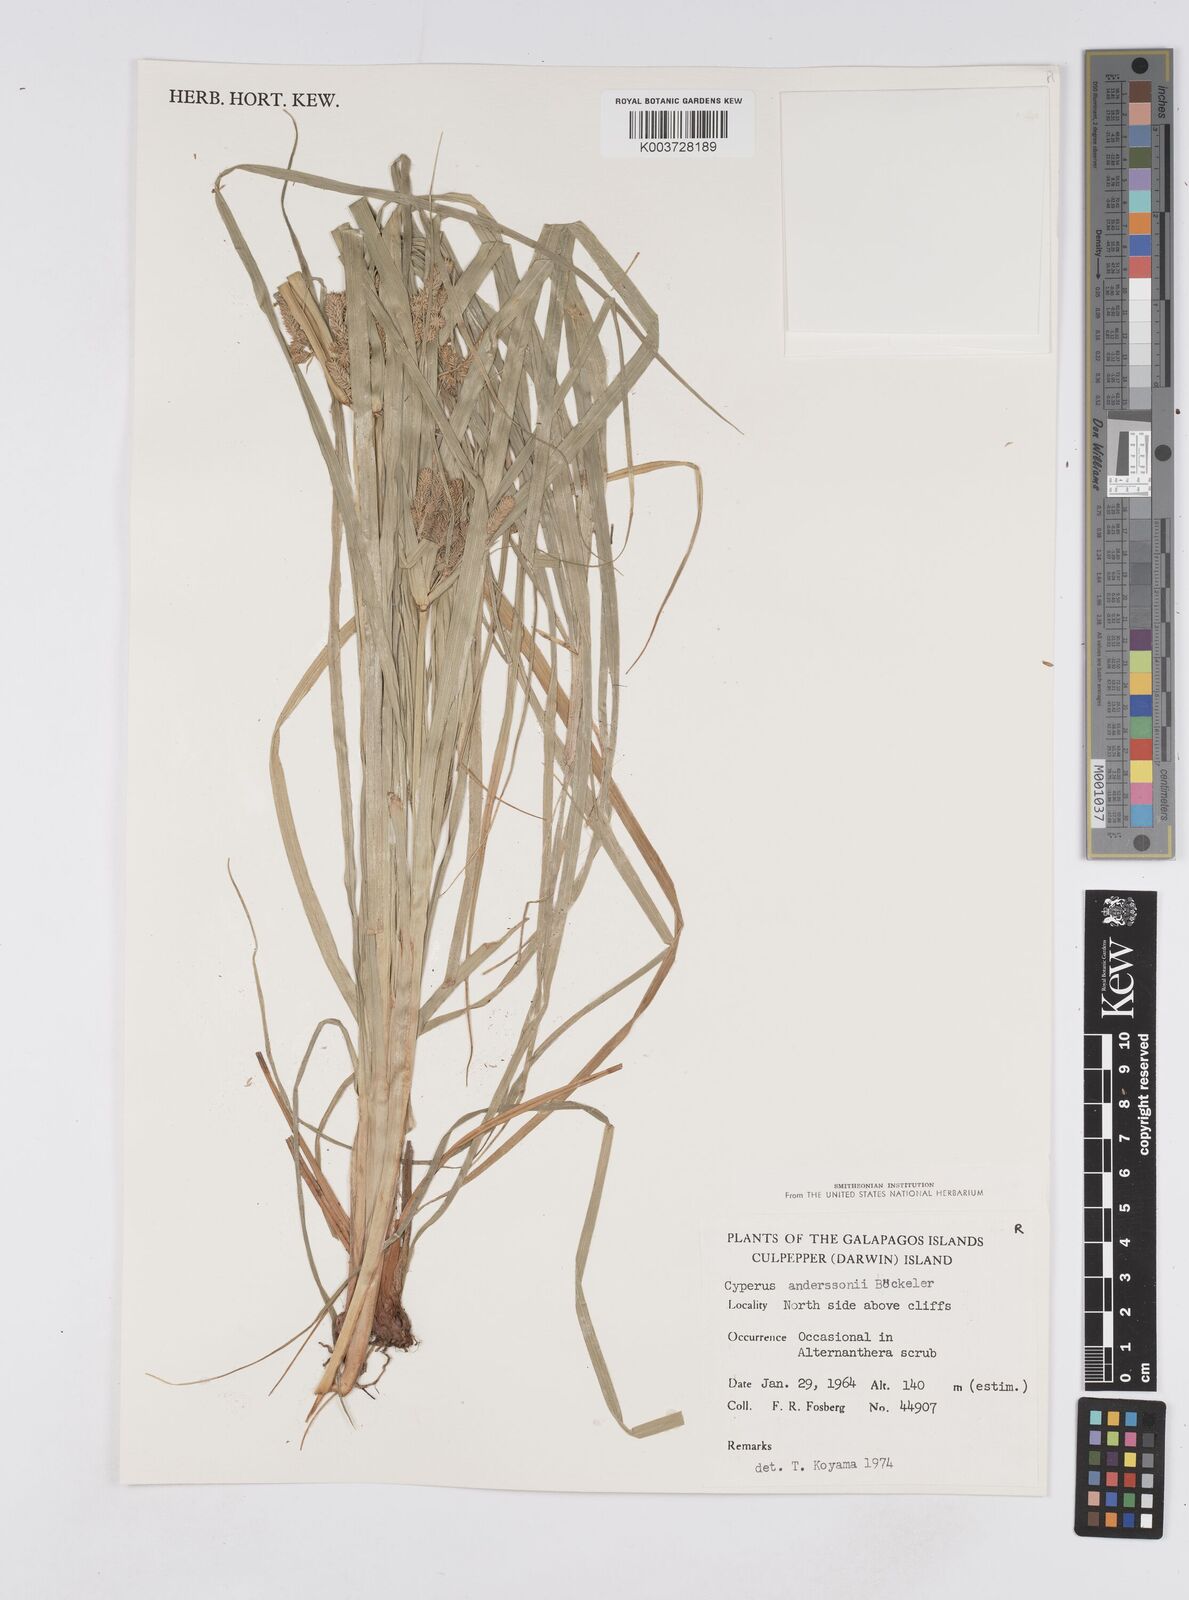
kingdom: Plantae
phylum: Tracheophyta
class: Liliopsida
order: Poales
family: Cyperaceae
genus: Cyperus
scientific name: Cyperus anderssonii
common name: Andersson's sedge
